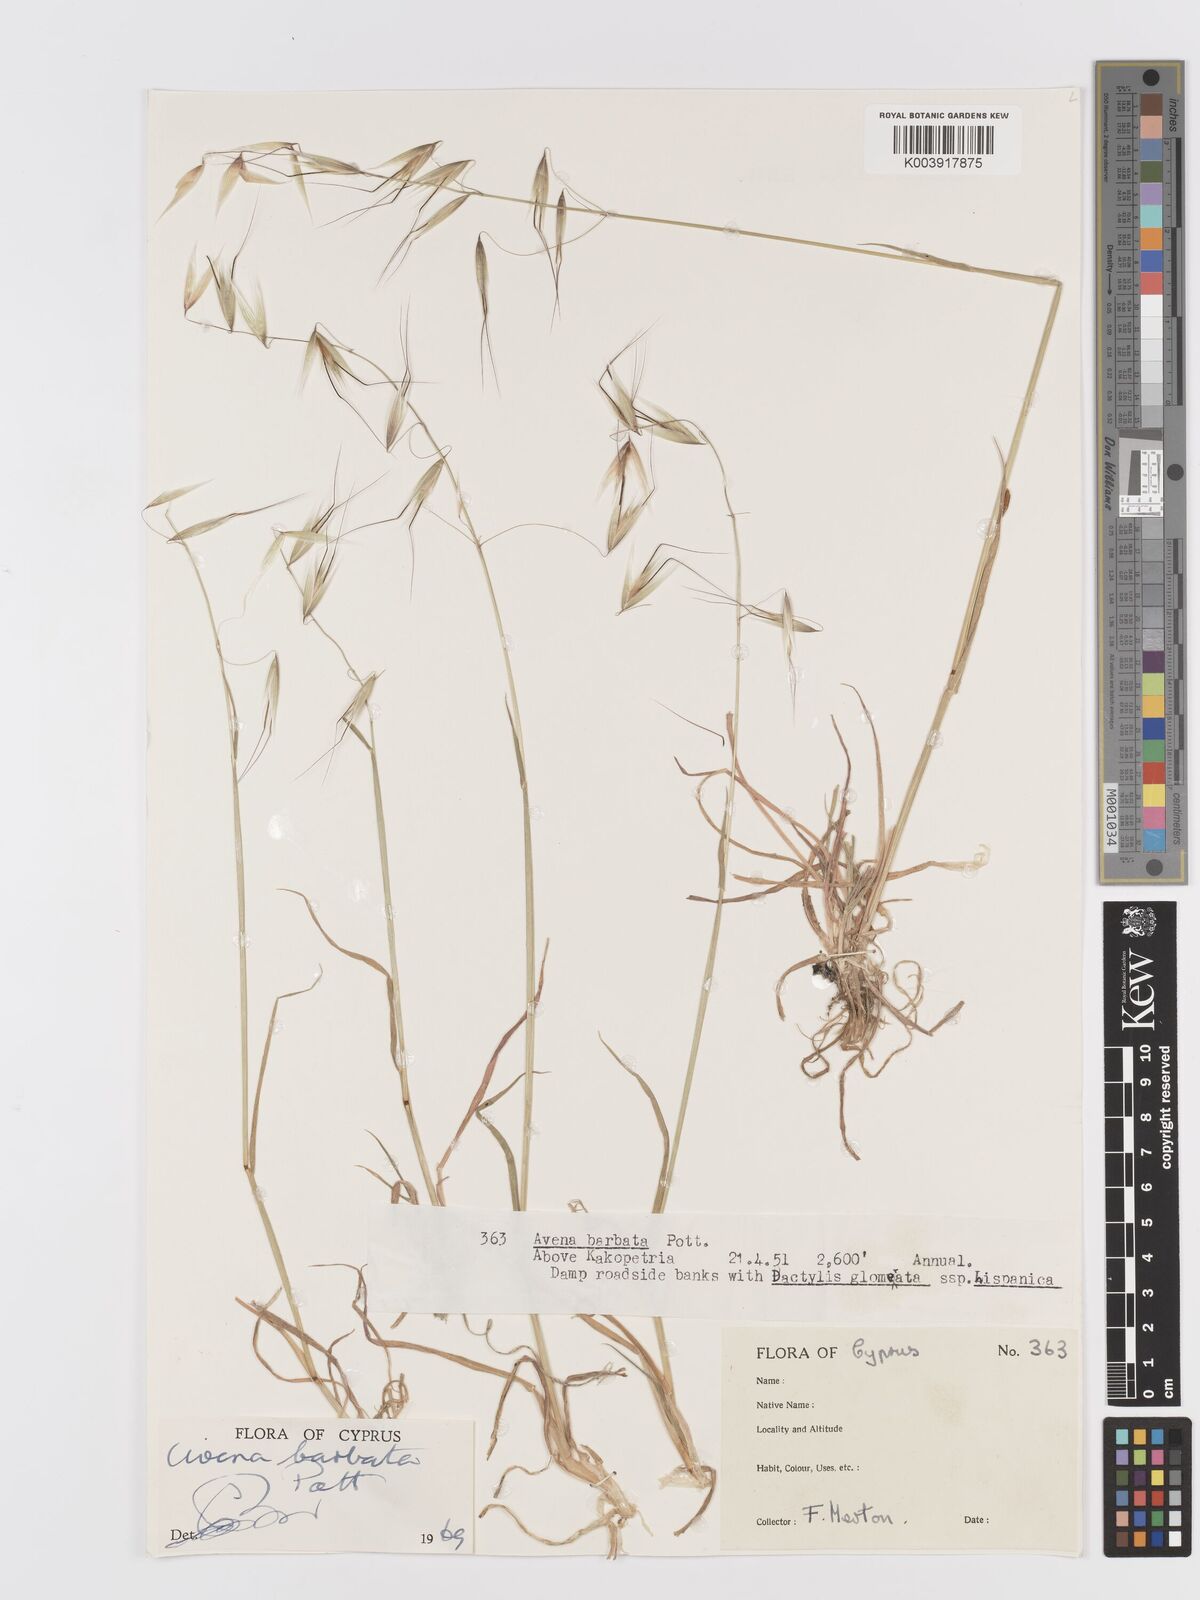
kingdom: Plantae
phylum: Tracheophyta
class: Liliopsida
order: Poales
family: Poaceae
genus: Avena
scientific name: Avena
